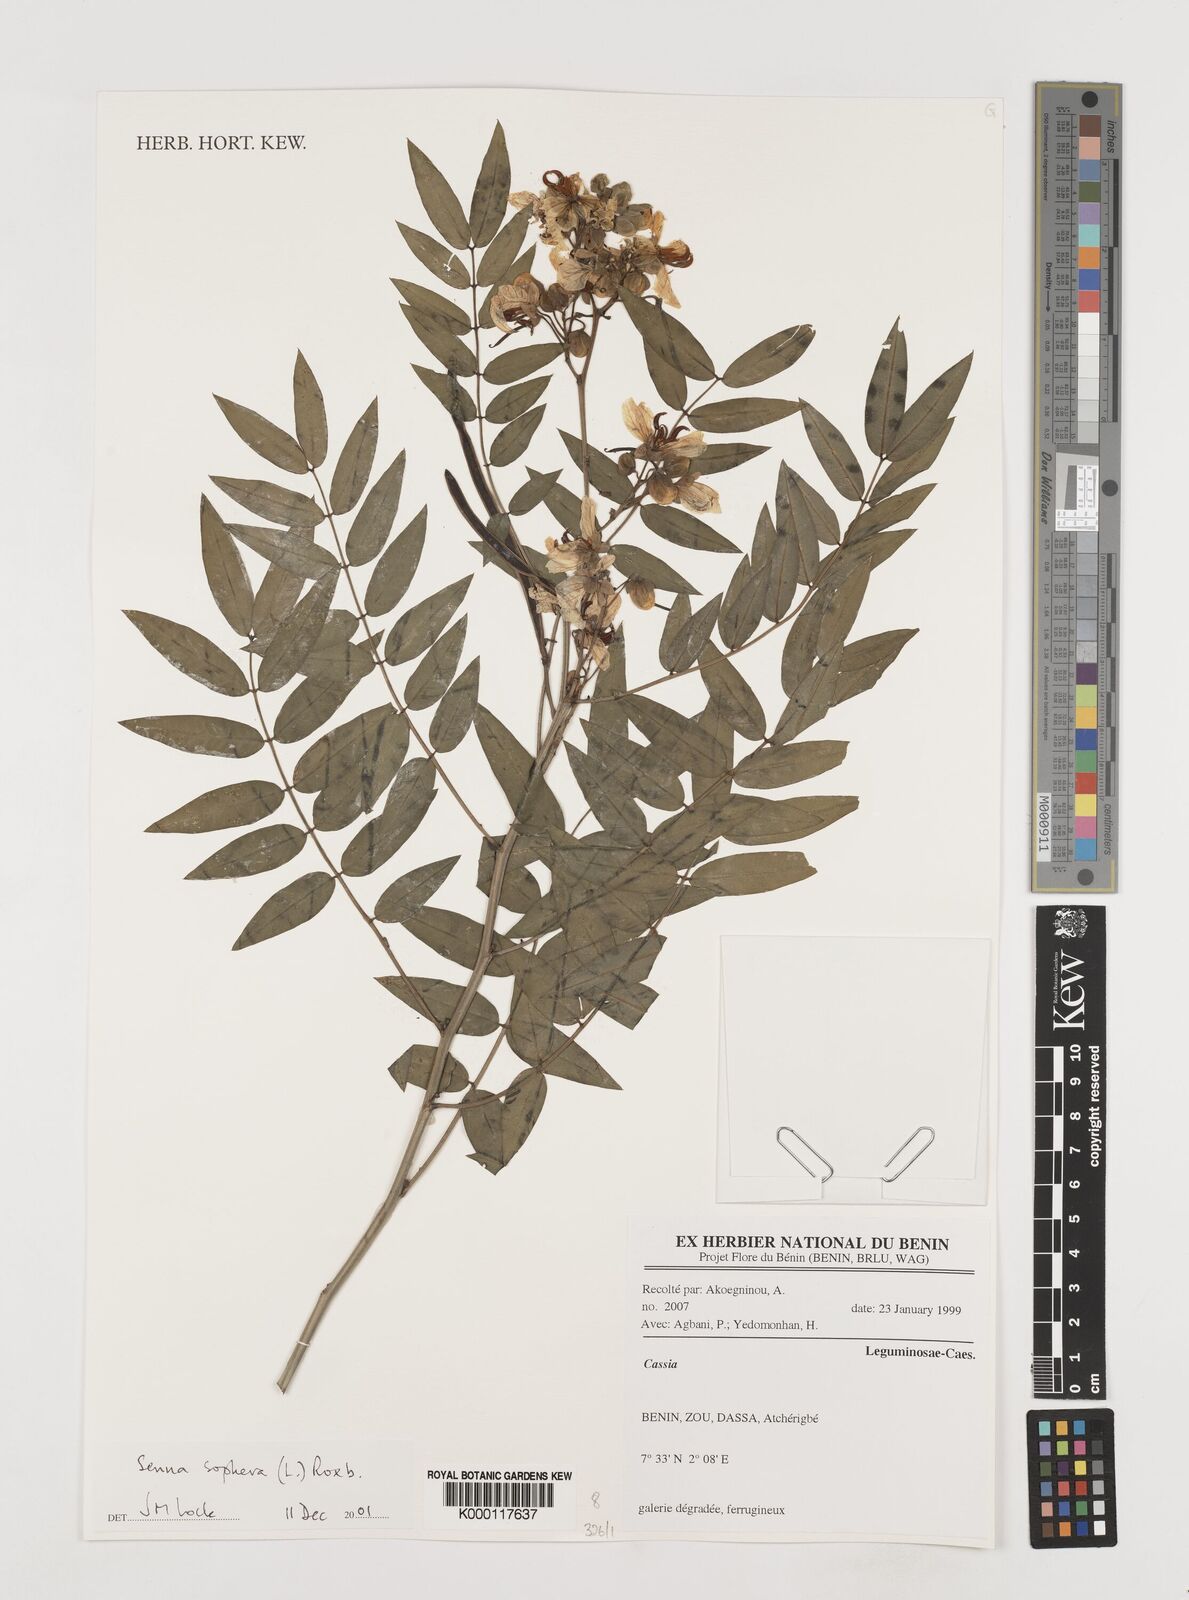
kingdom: Plantae
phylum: Tracheophyta
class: Magnoliopsida
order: Fabales
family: Fabaceae
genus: Senna
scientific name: Senna sophera
